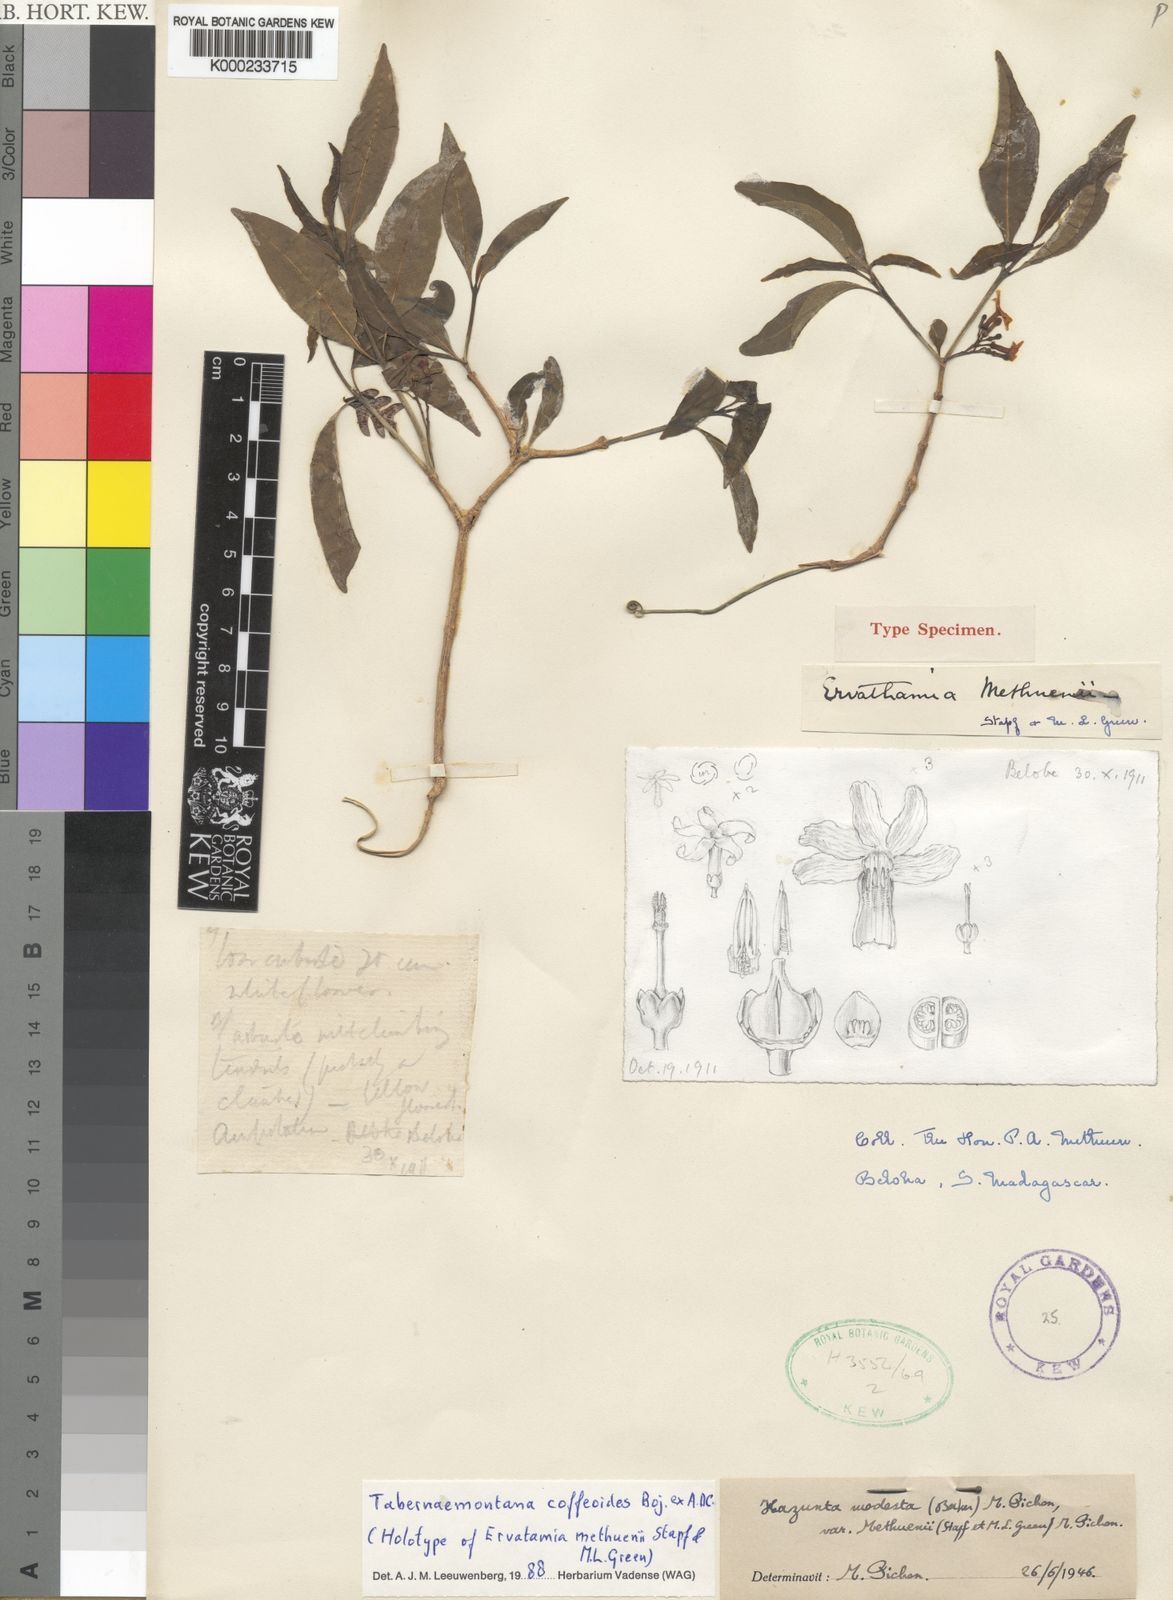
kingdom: Plantae
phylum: Tracheophyta
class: Magnoliopsida
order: Gentianales
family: Apocynaceae
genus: Tabernaemontana
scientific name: Tabernaemontana coffeoides
